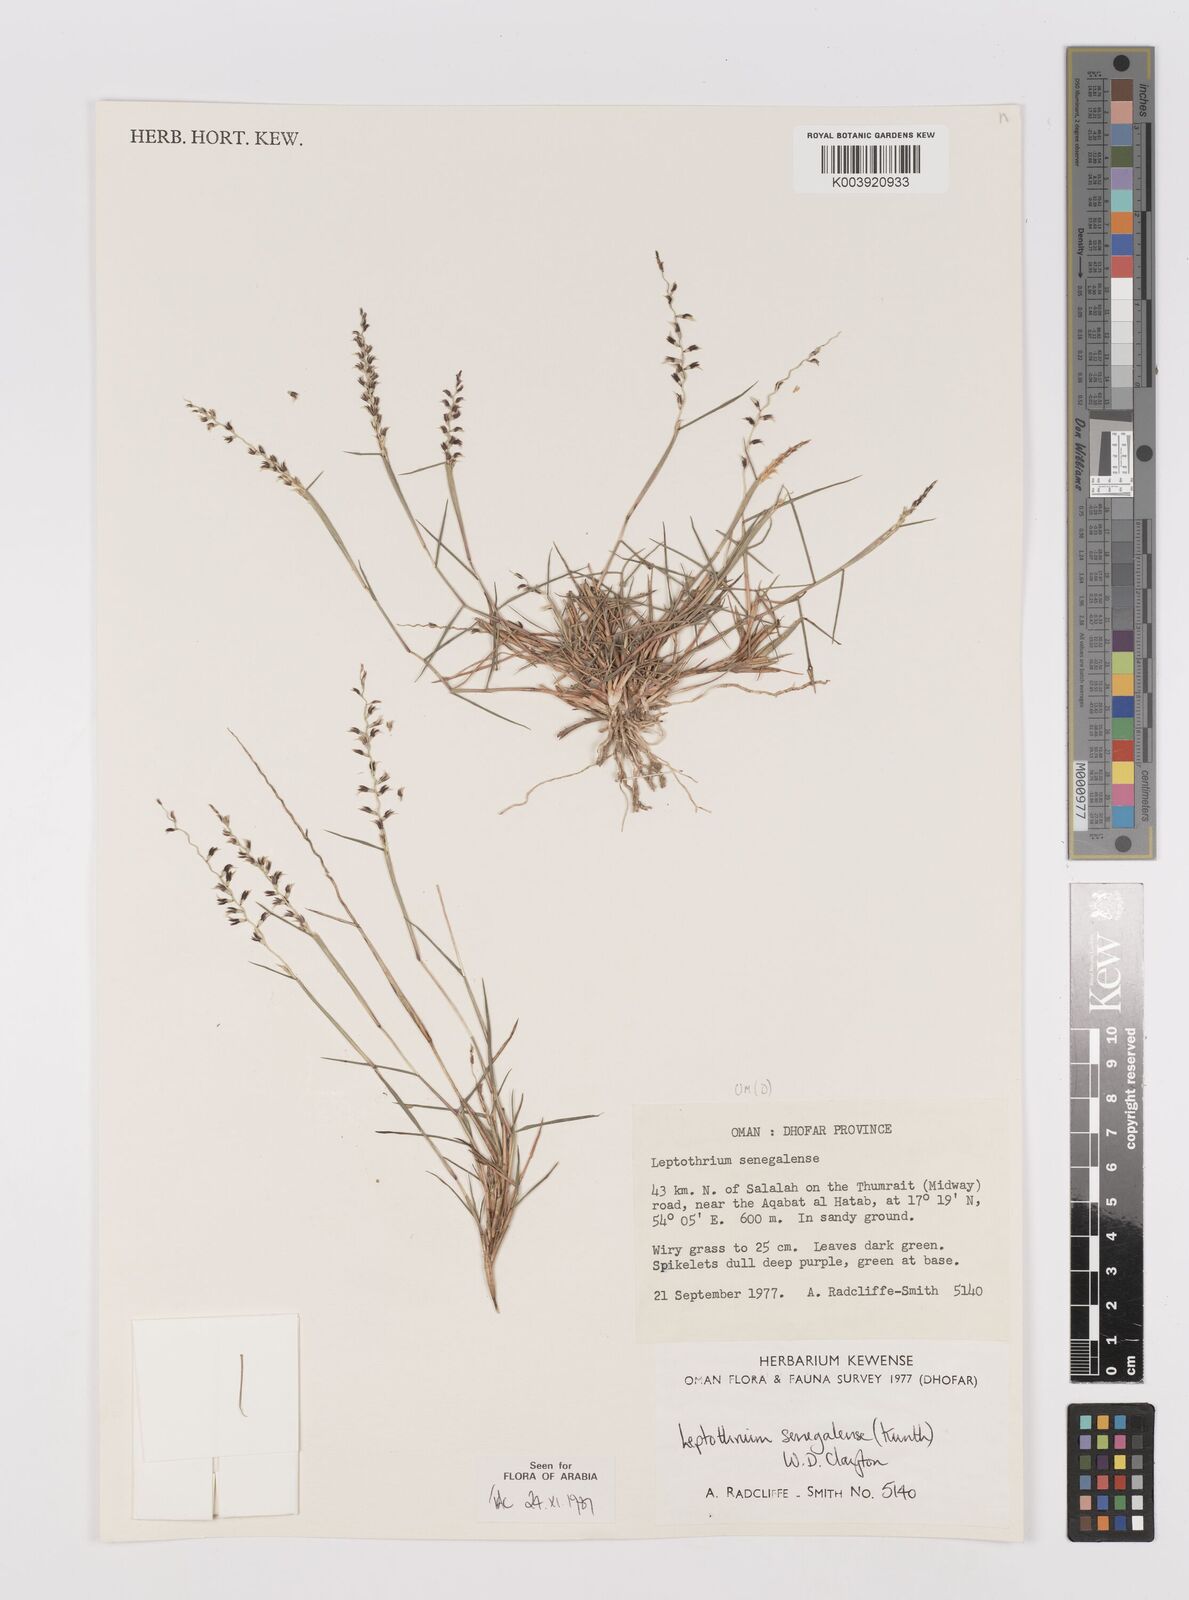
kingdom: Plantae
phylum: Tracheophyta
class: Liliopsida
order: Poales
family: Poaceae
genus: Leptothrium
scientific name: Leptothrium senegalense
